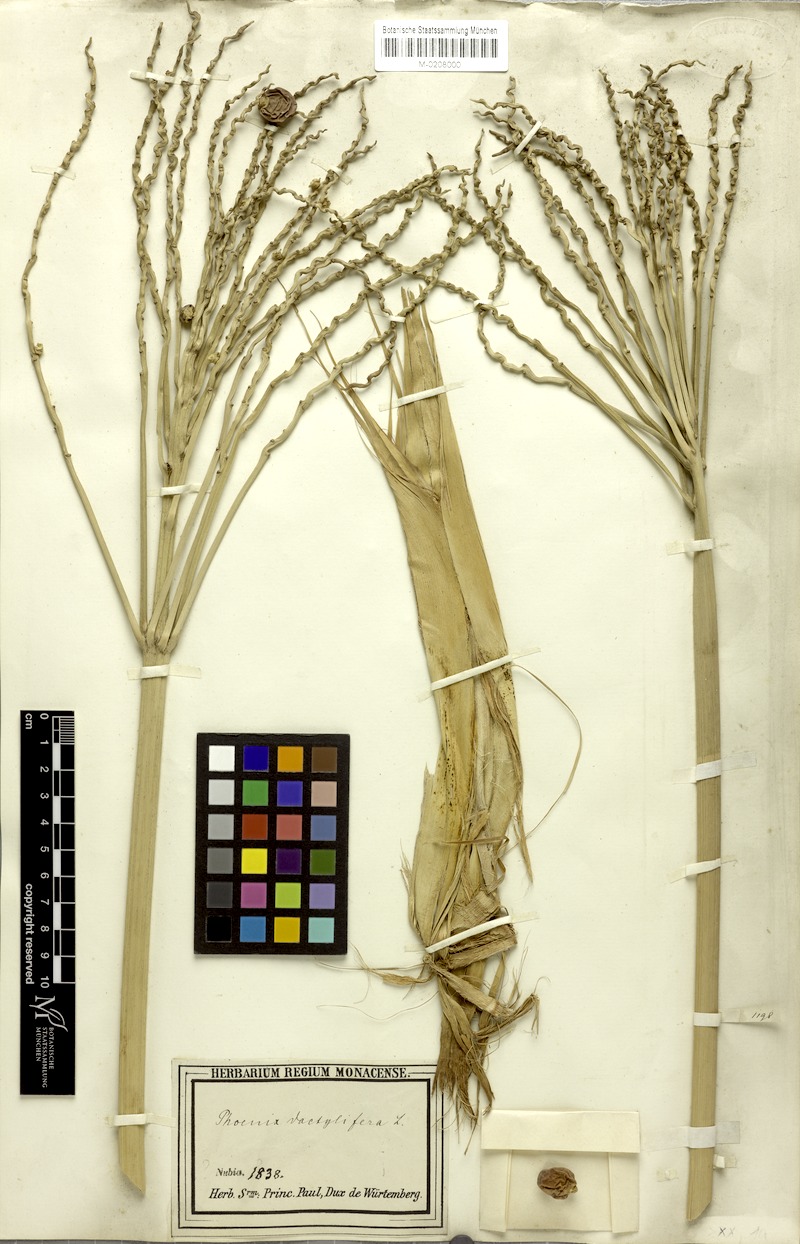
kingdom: Plantae
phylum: Tracheophyta
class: Liliopsida
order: Arecales
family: Arecaceae
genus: Phoenix
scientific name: Phoenix dactylifera
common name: Date palm
